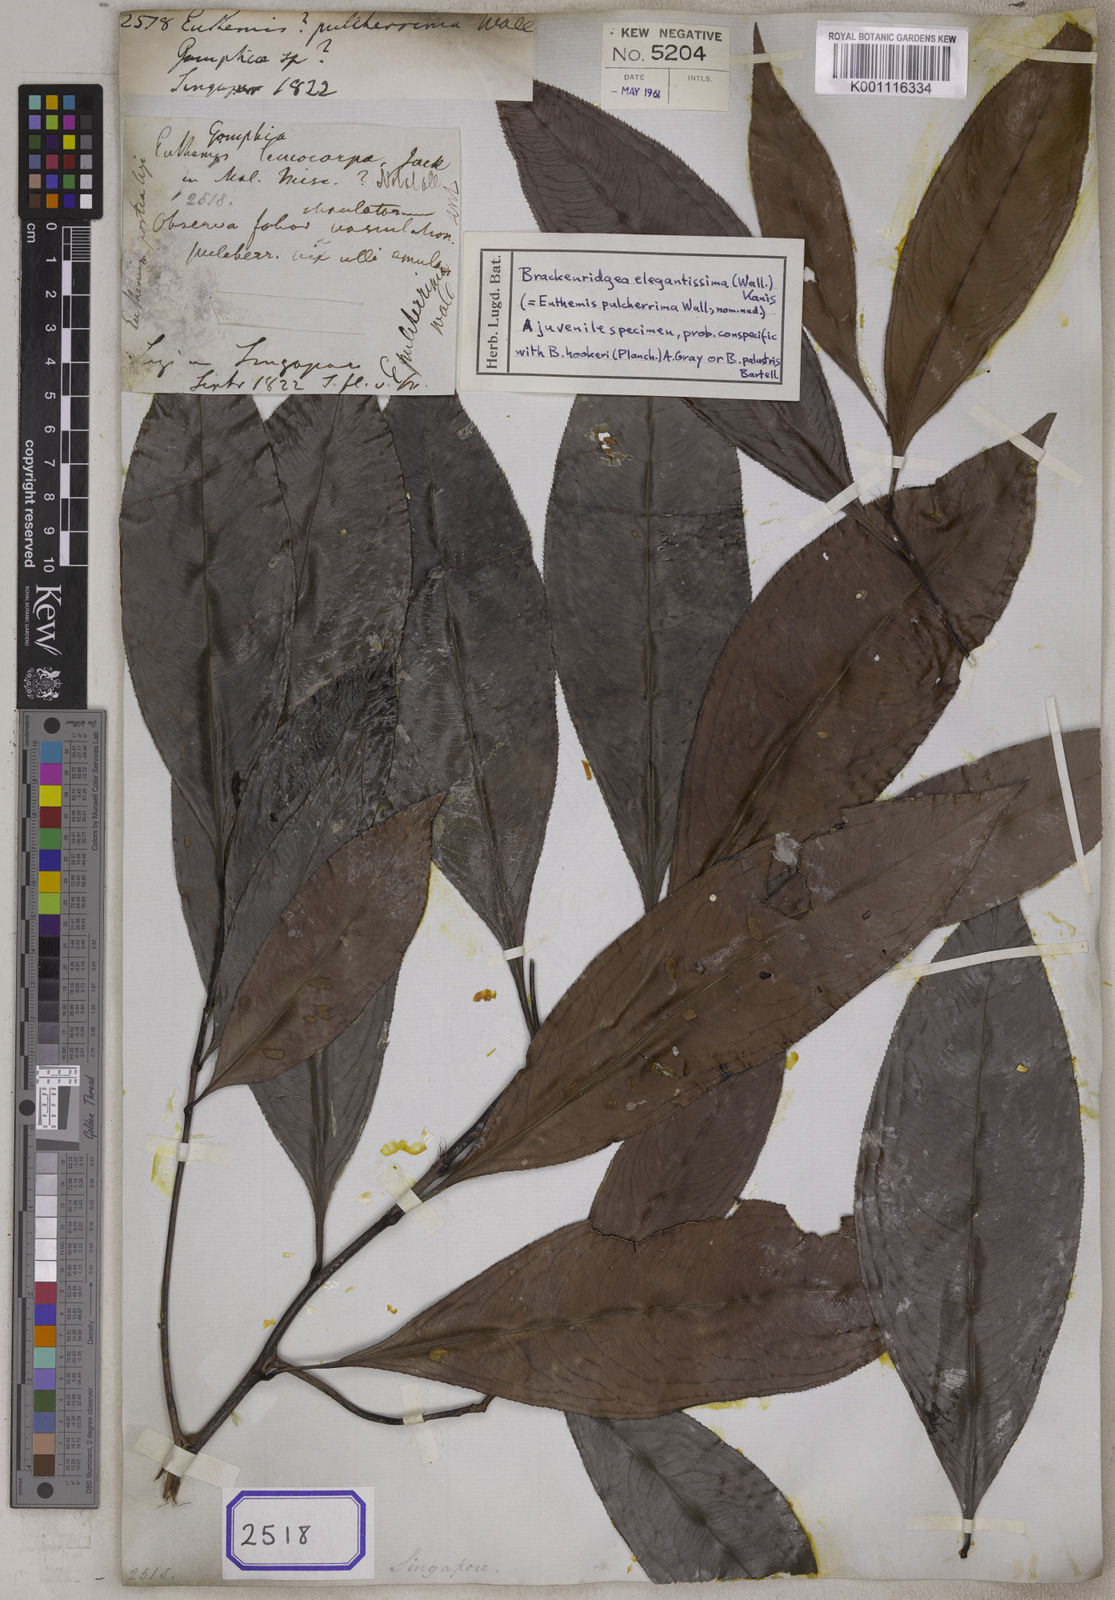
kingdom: Plantae
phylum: Tracheophyta
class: Magnoliopsida
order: Malpighiales
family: Ochnaceae
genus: Gomphia
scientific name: Gomphia serrata
